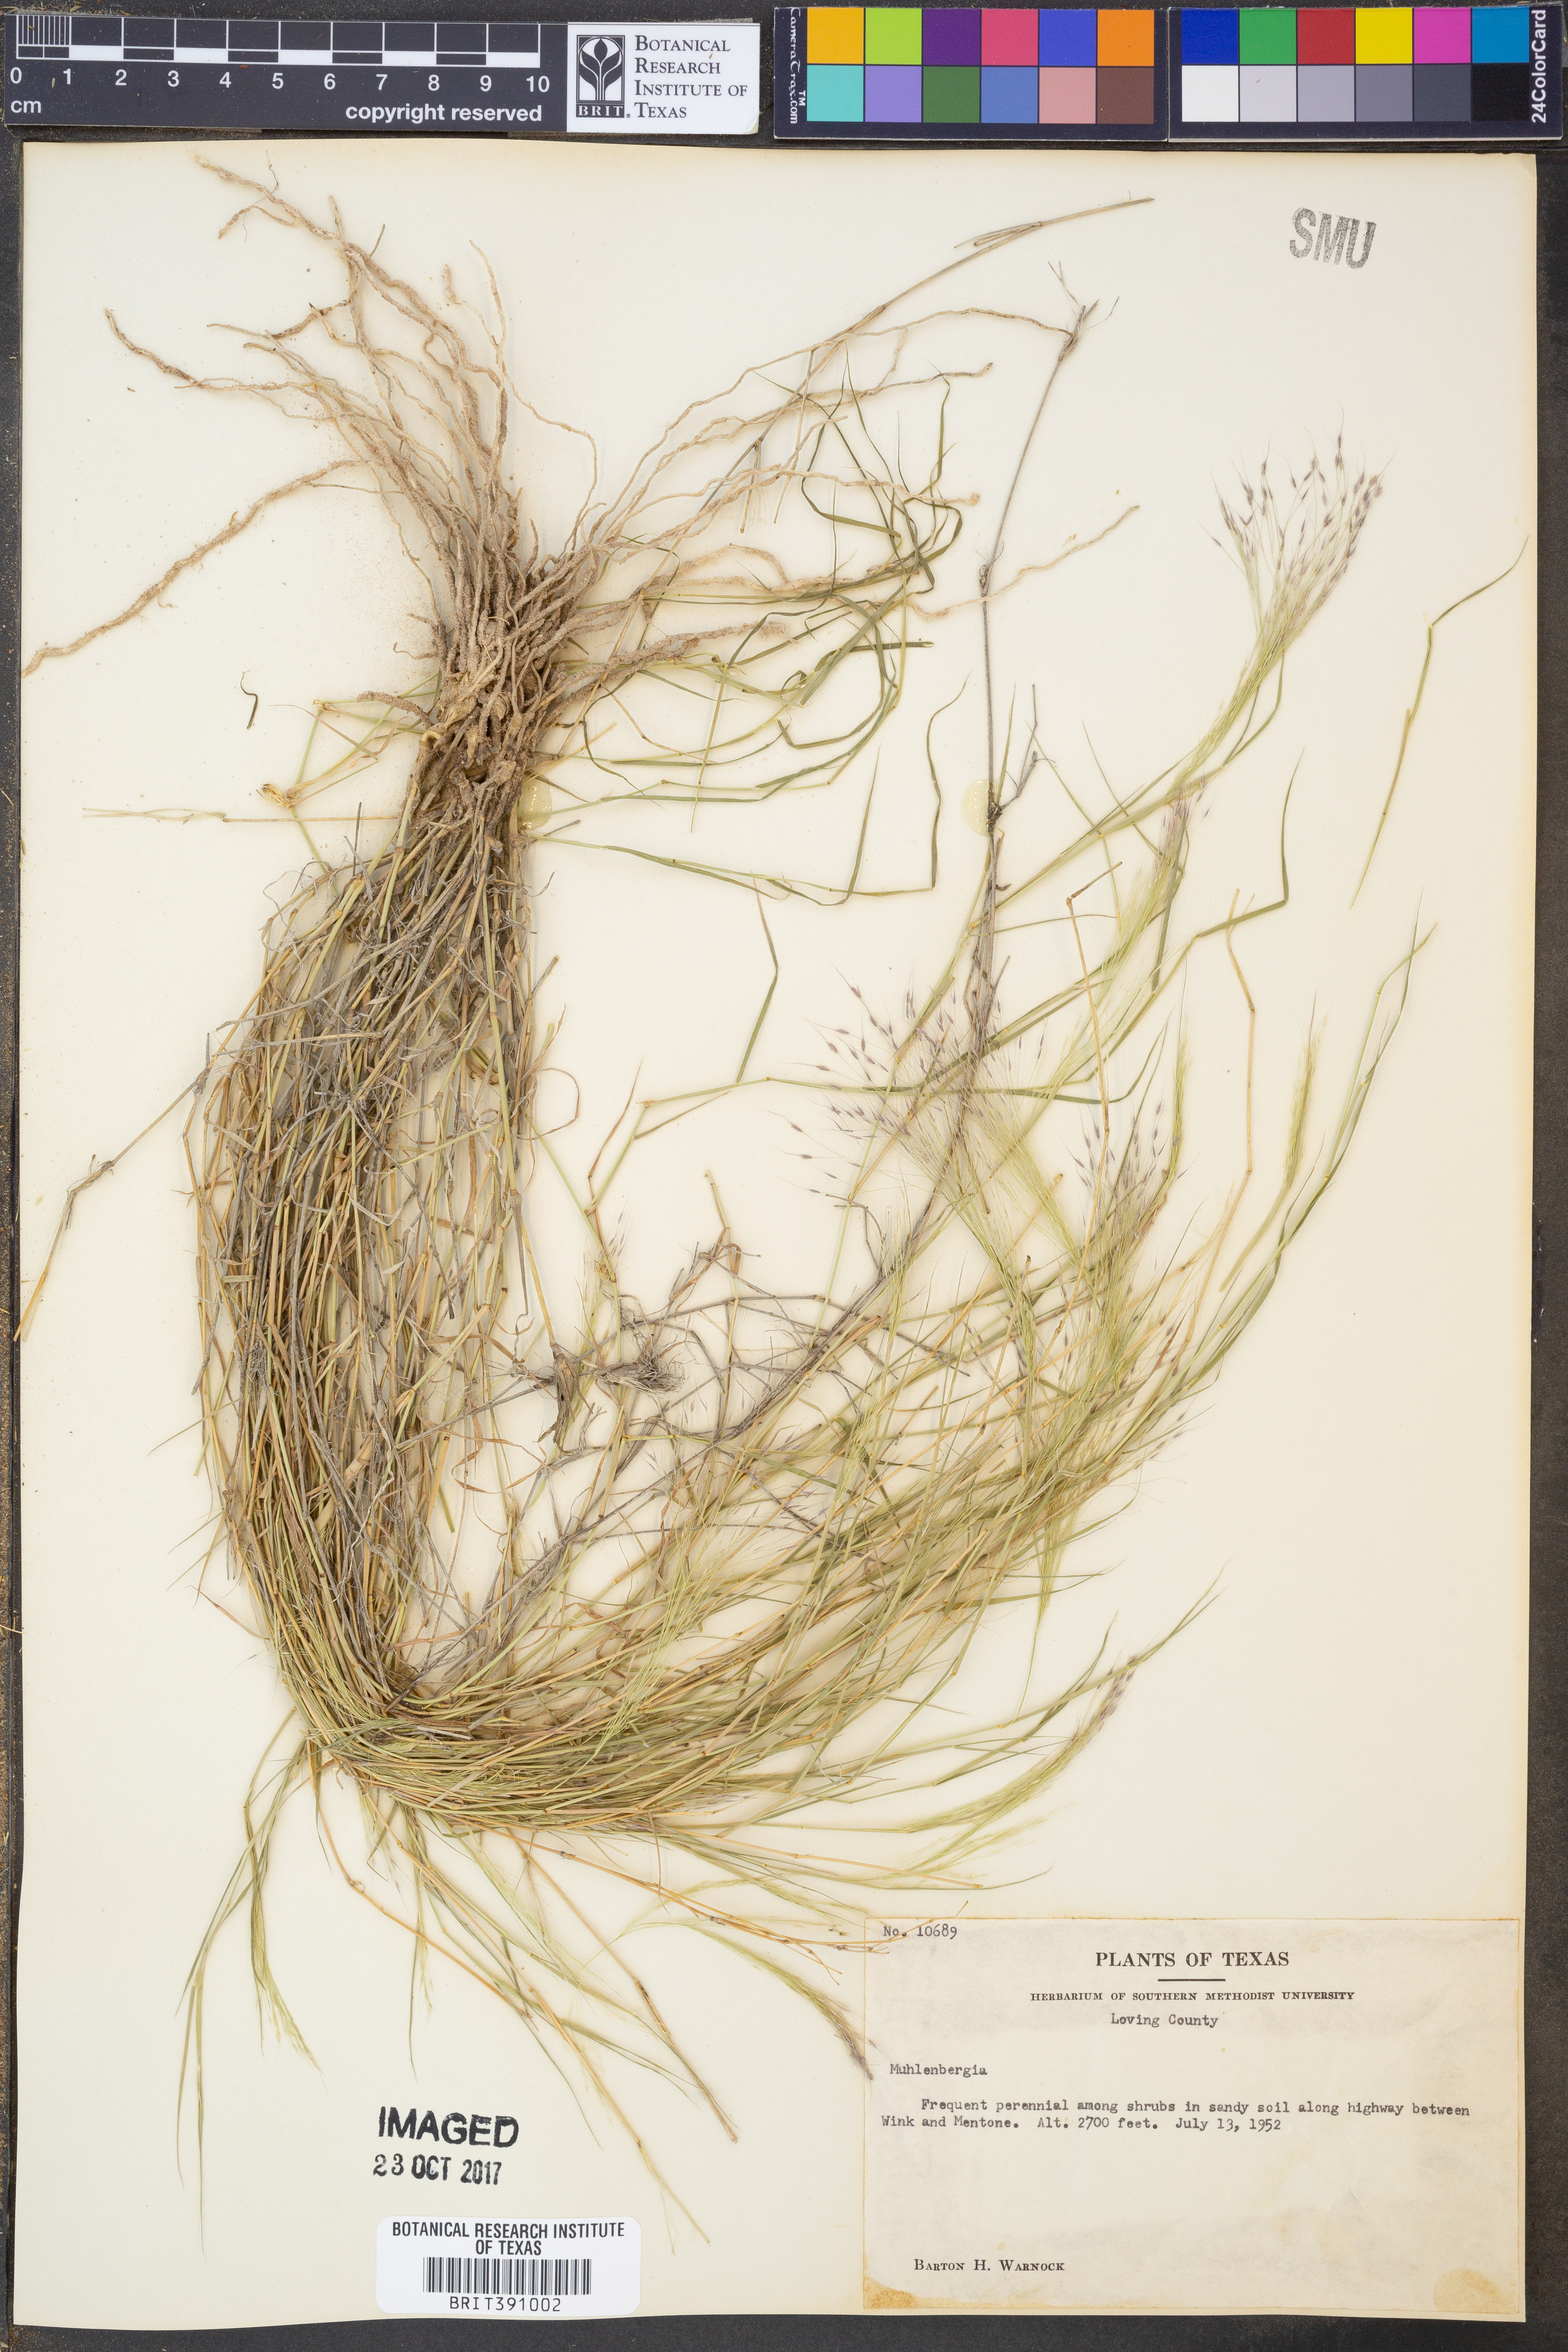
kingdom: Plantae
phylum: Tracheophyta
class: Liliopsida
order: Poales
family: Poaceae
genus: Muhlenbergia
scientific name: Muhlenbergia
